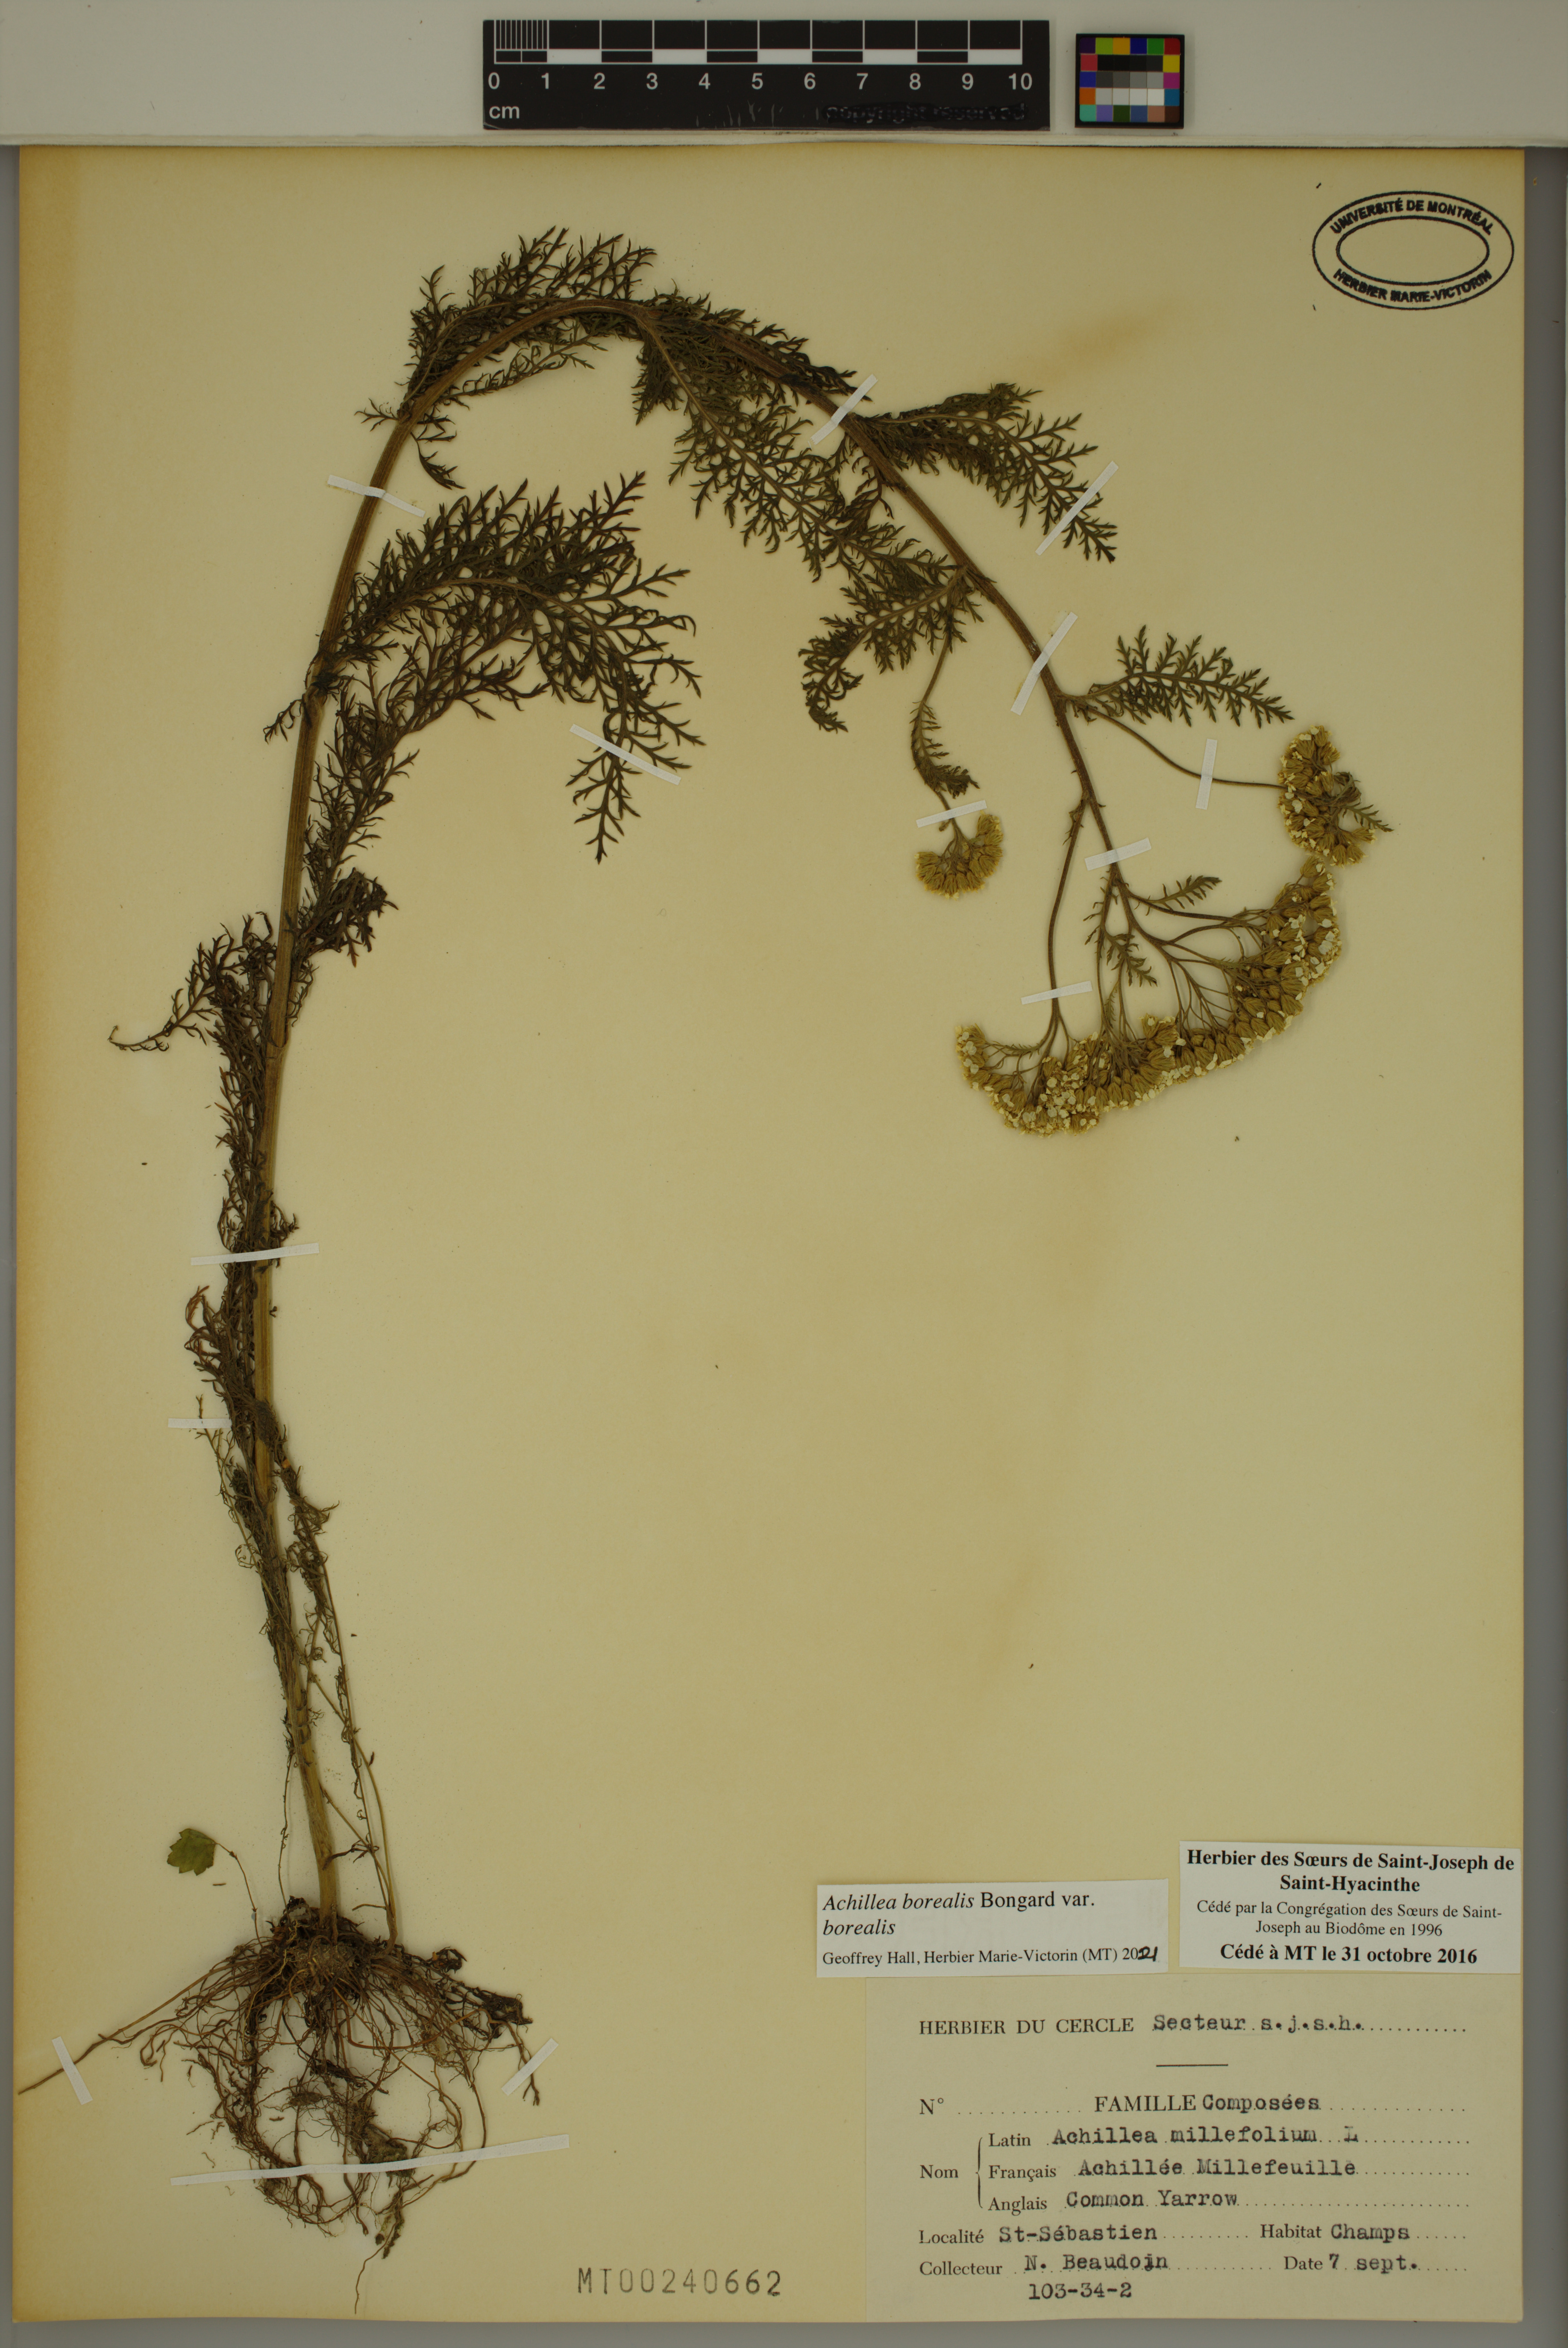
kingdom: Plantae
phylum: Tracheophyta
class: Magnoliopsida
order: Asterales
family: Asteraceae
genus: Achillea
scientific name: Achillea millefolium
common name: Yarrow
